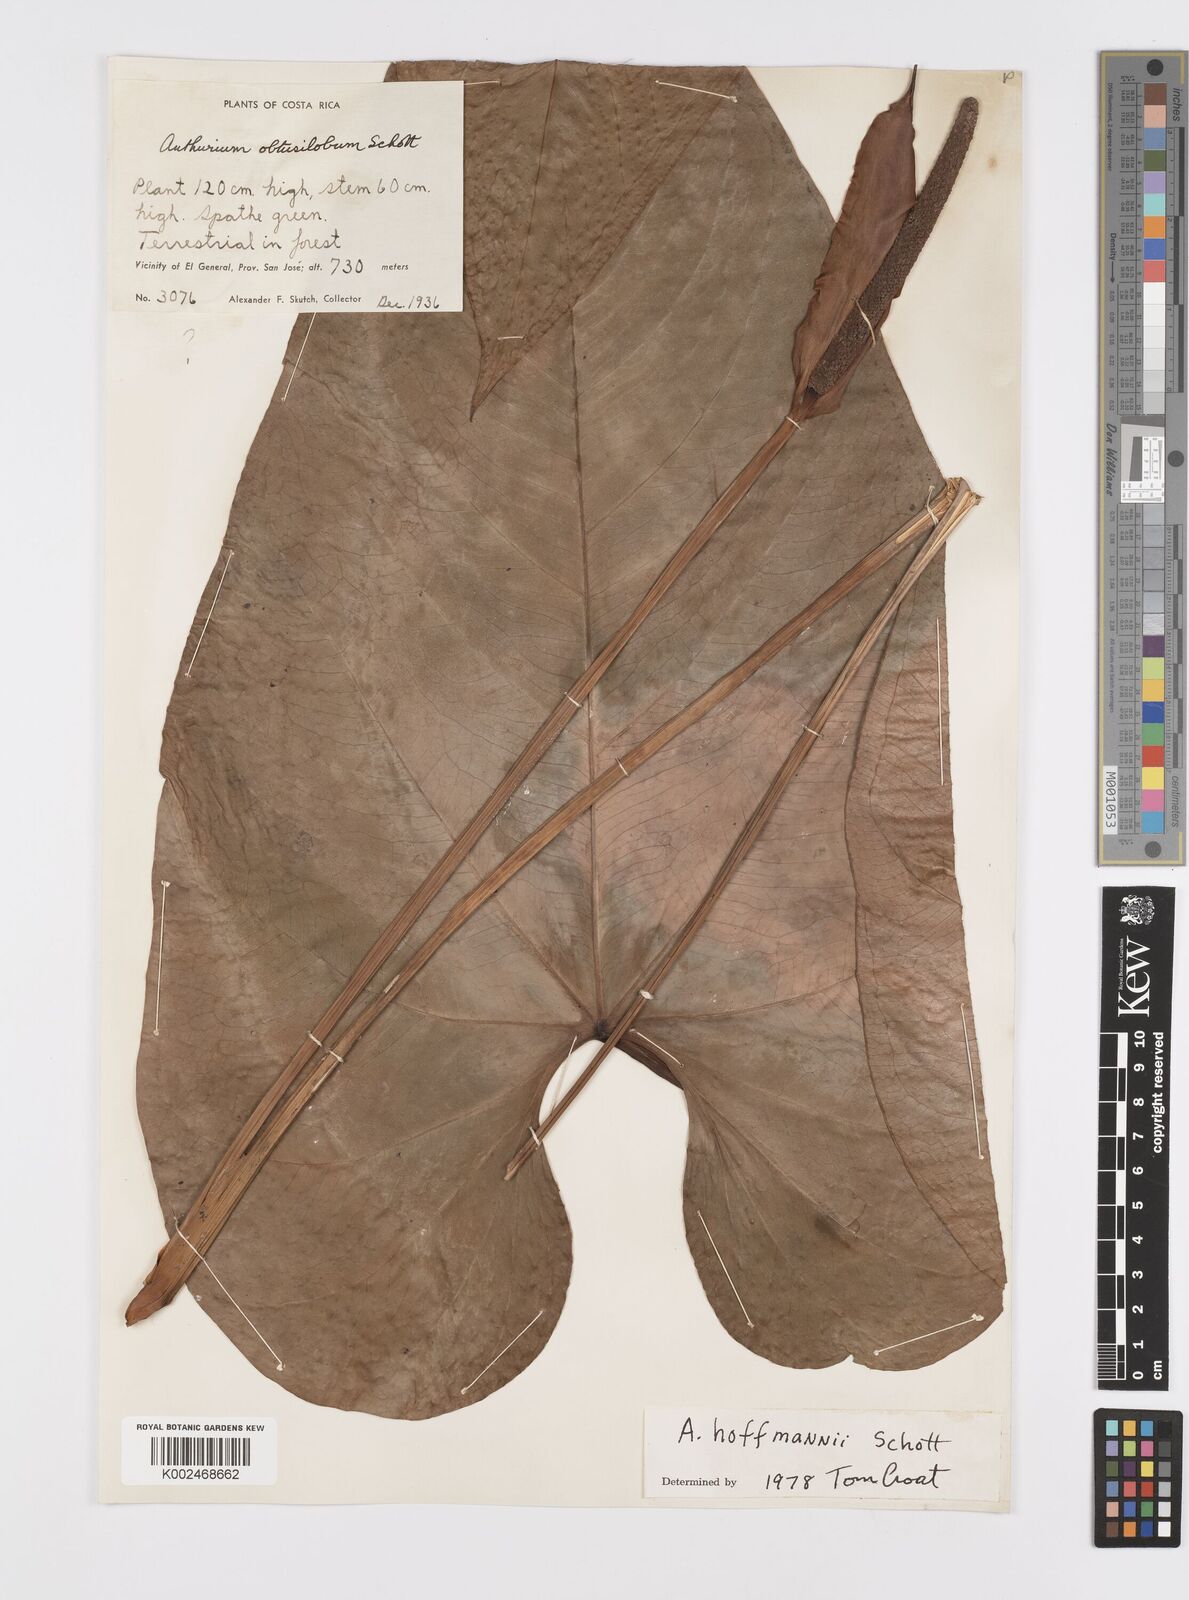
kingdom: Plantae
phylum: Tracheophyta
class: Liliopsida
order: Alismatales
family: Araceae
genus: Anthurium
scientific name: Anthurium hoffmannii
